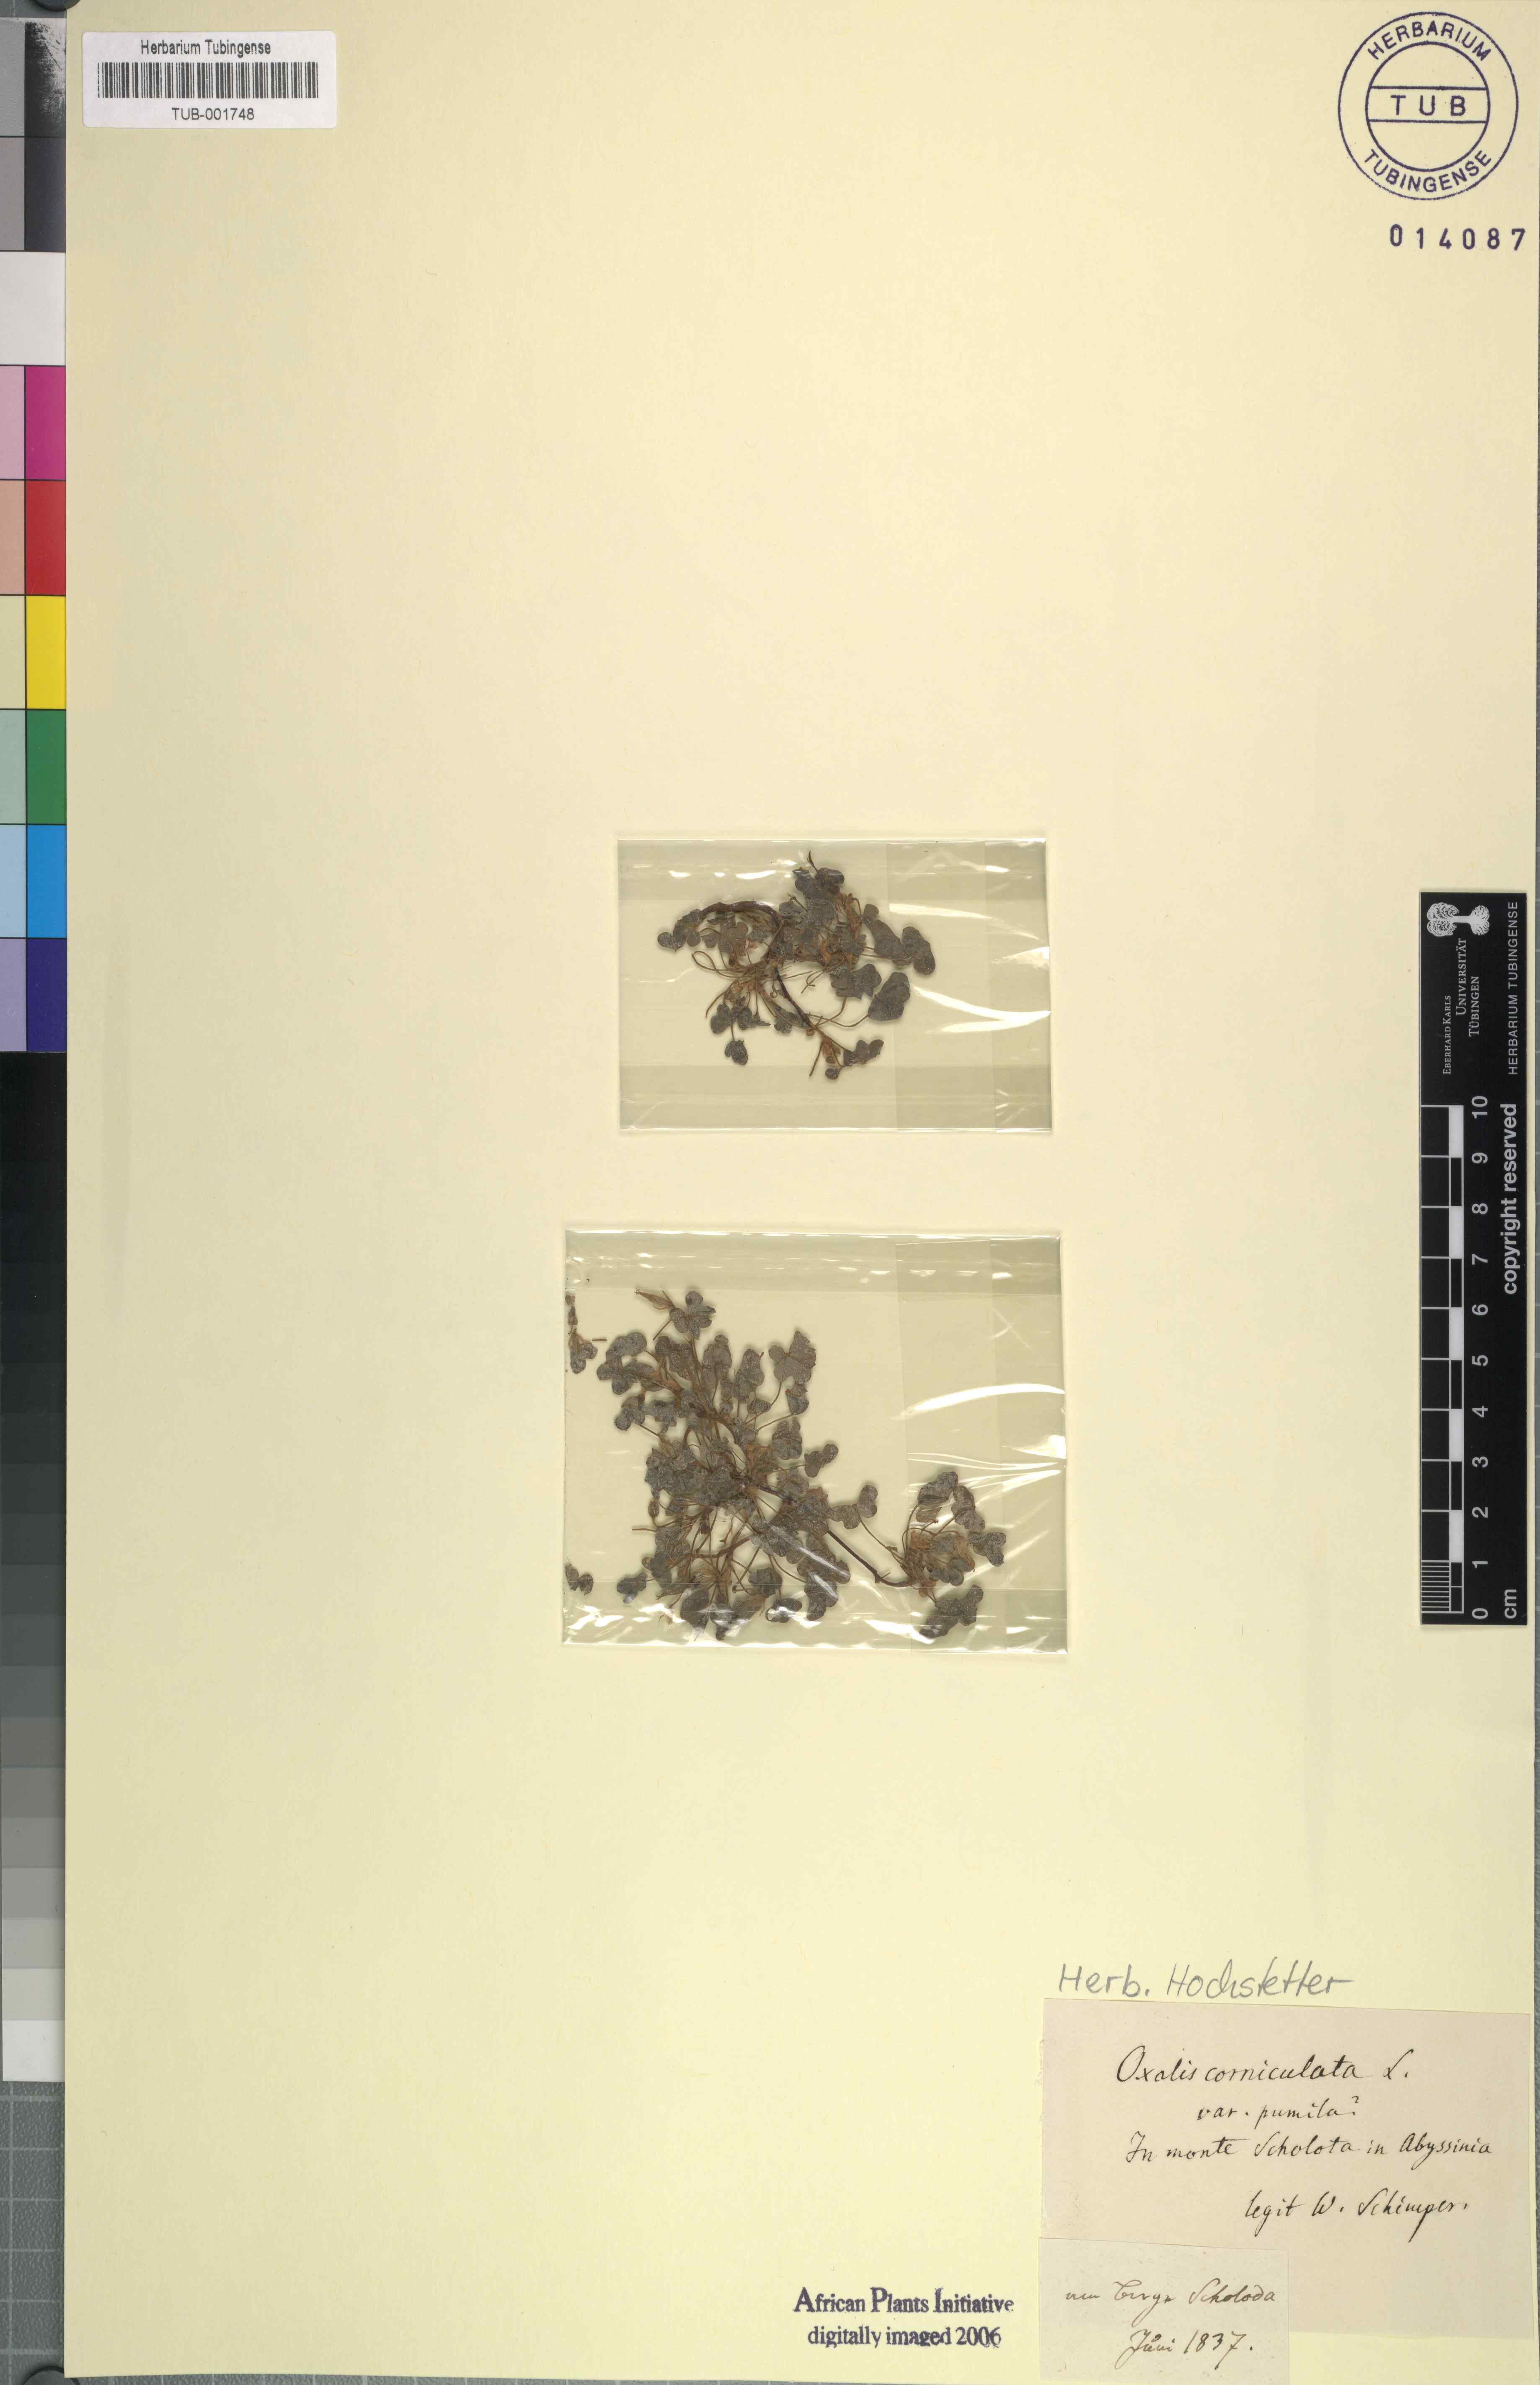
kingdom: Plantae
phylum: Tracheophyta
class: Magnoliopsida
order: Oxalidales
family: Oxalidaceae
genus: Oxalis
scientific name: Oxalis corniculata
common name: Procumbent yellow-sorrel
